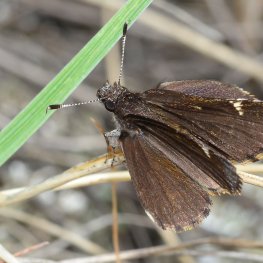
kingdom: Animalia
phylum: Arthropoda
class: Insecta
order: Lepidoptera
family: Hesperiidae
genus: Mastor
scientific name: Mastor vialis
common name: Common Roadside-Skipper
